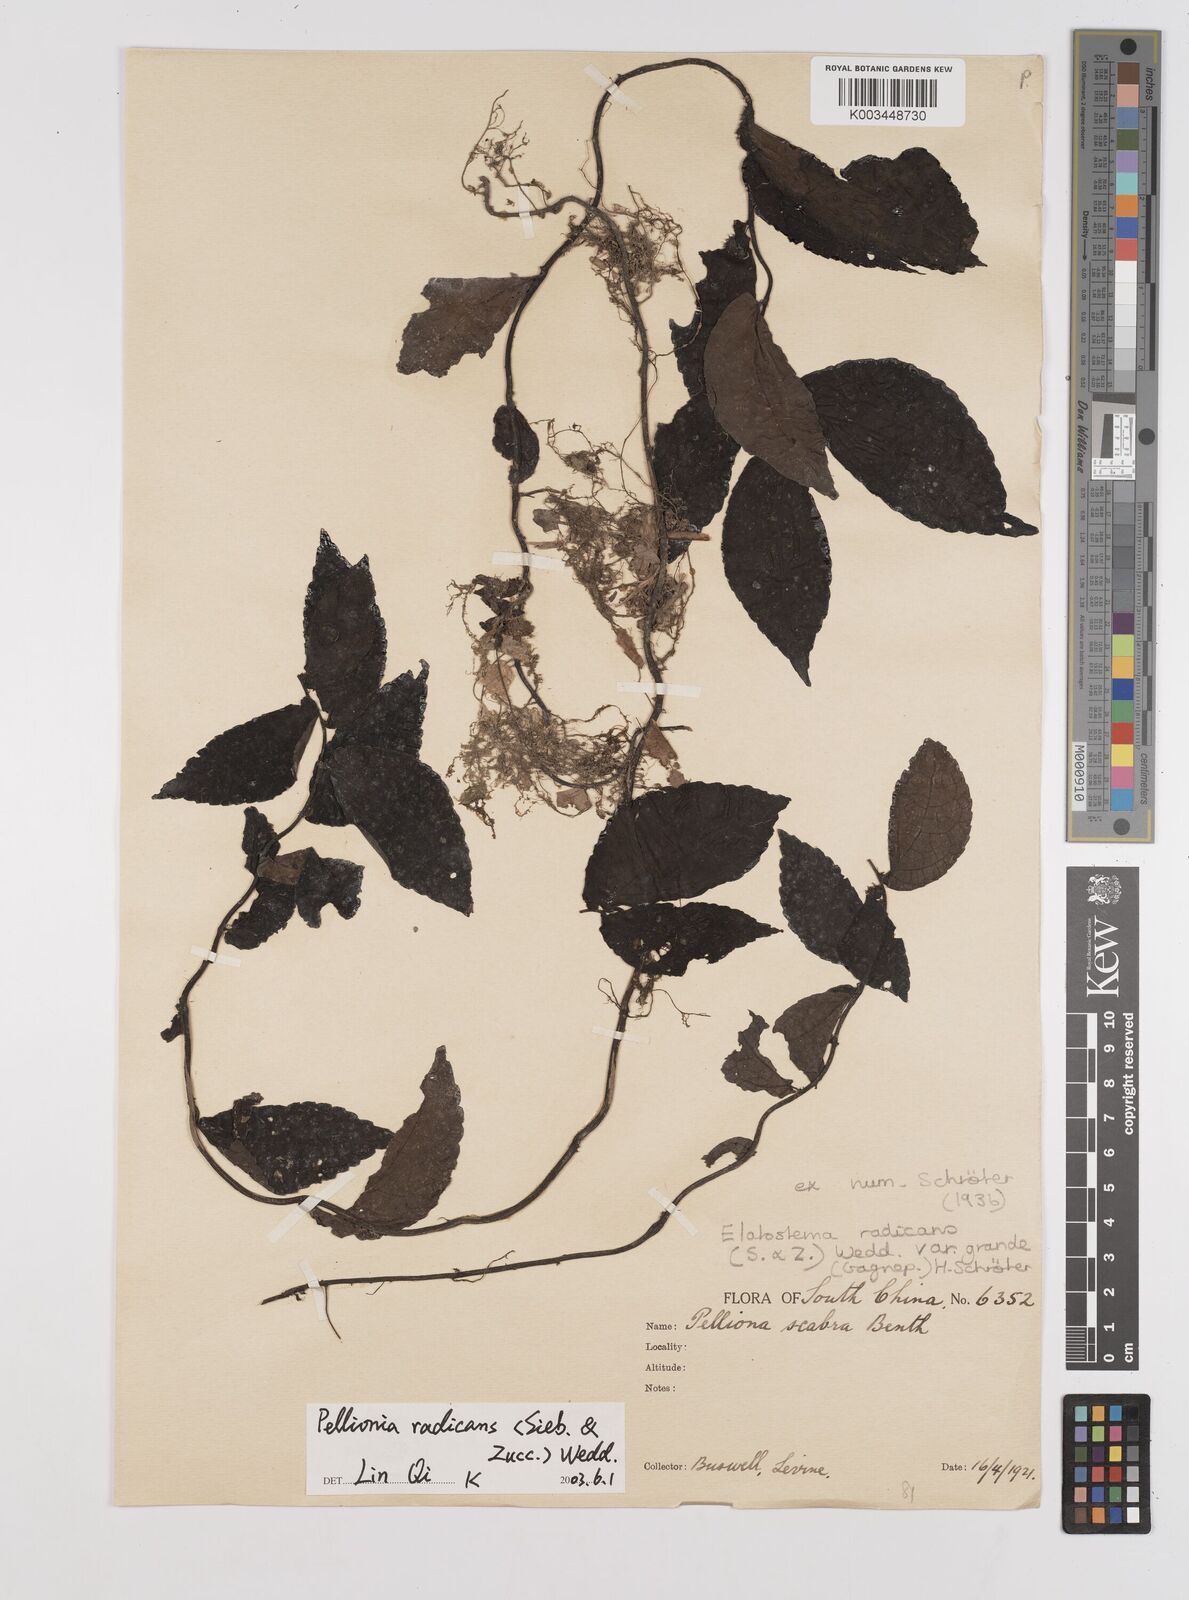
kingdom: Plantae
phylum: Tracheophyta
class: Magnoliopsida
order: Rosales
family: Urticaceae
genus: Elatostema
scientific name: Elatostema radicans
